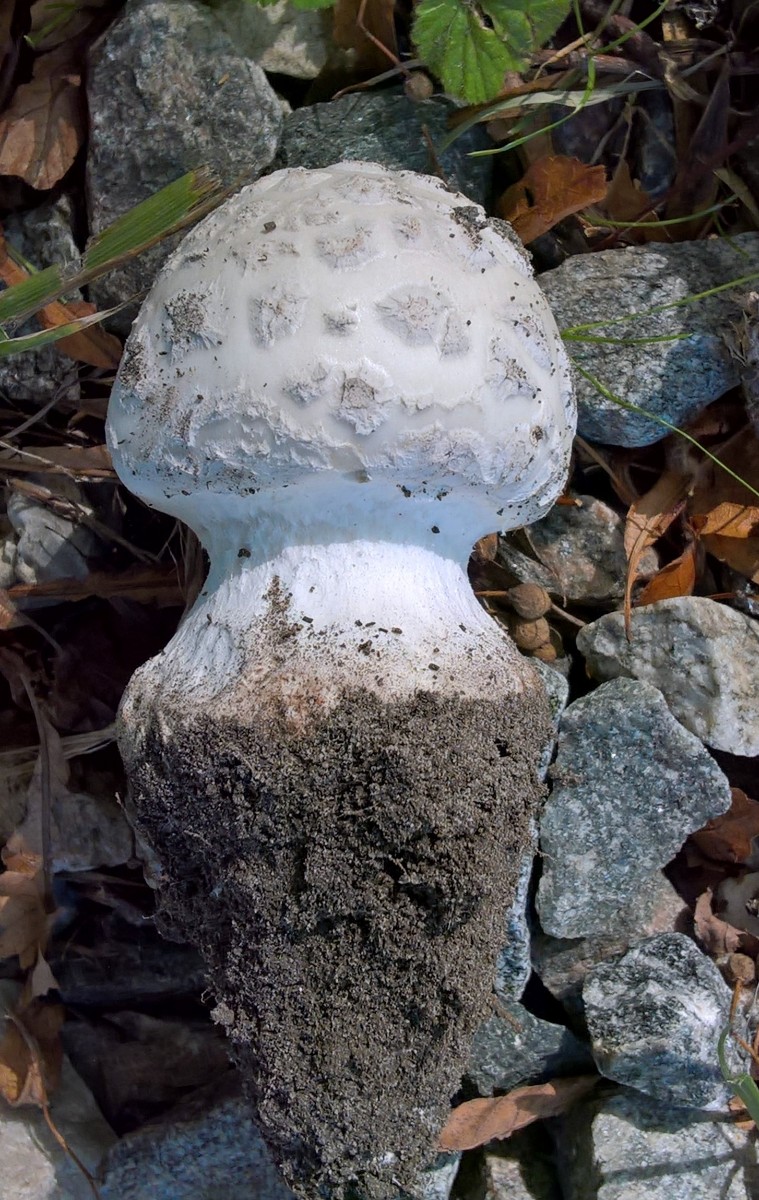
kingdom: Fungi
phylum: Basidiomycota
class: Agaricomycetes
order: Agaricales
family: Amanitaceae
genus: Amanita
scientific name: Amanita
